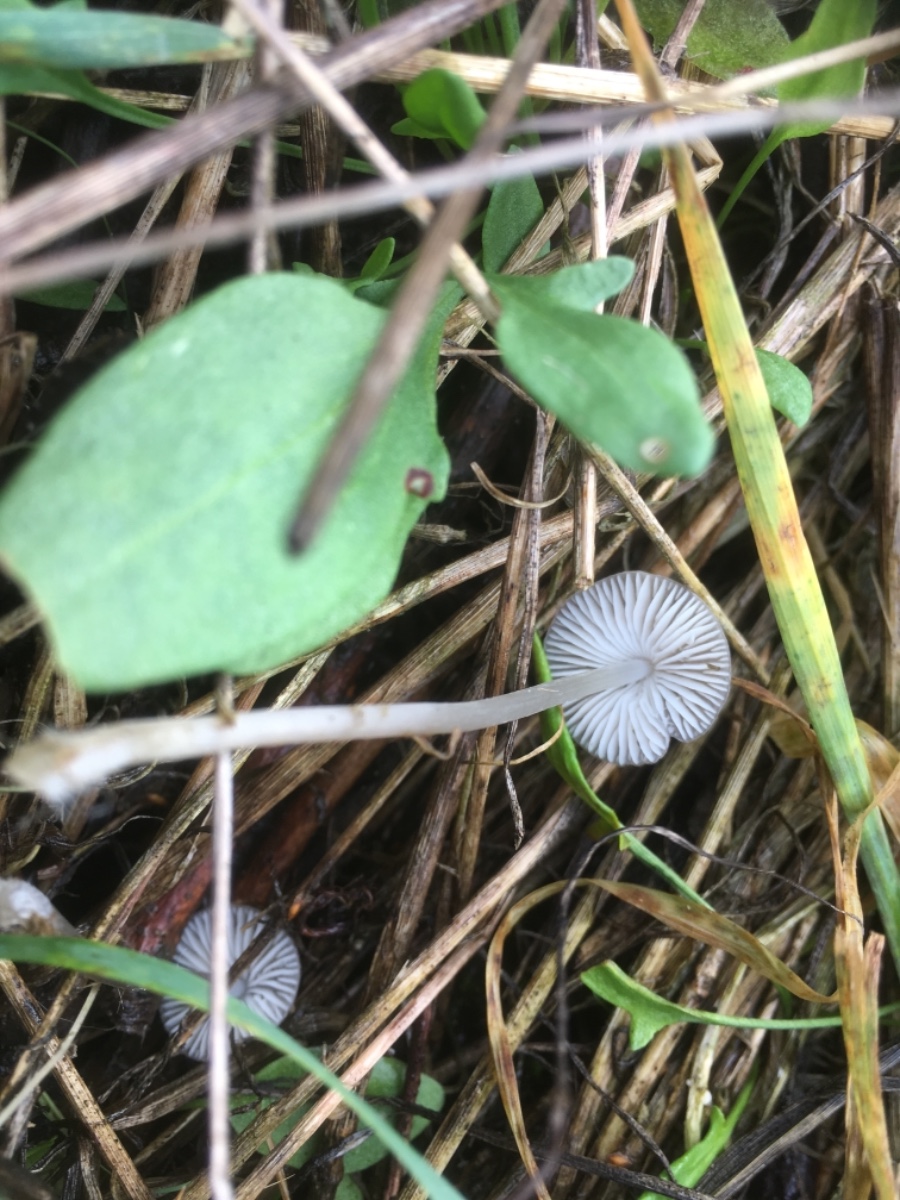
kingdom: Fungi
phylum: Basidiomycota
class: Agaricomycetes
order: Agaricales
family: Mycenaceae
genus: Mycena
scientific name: Mycena
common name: huesvamp
